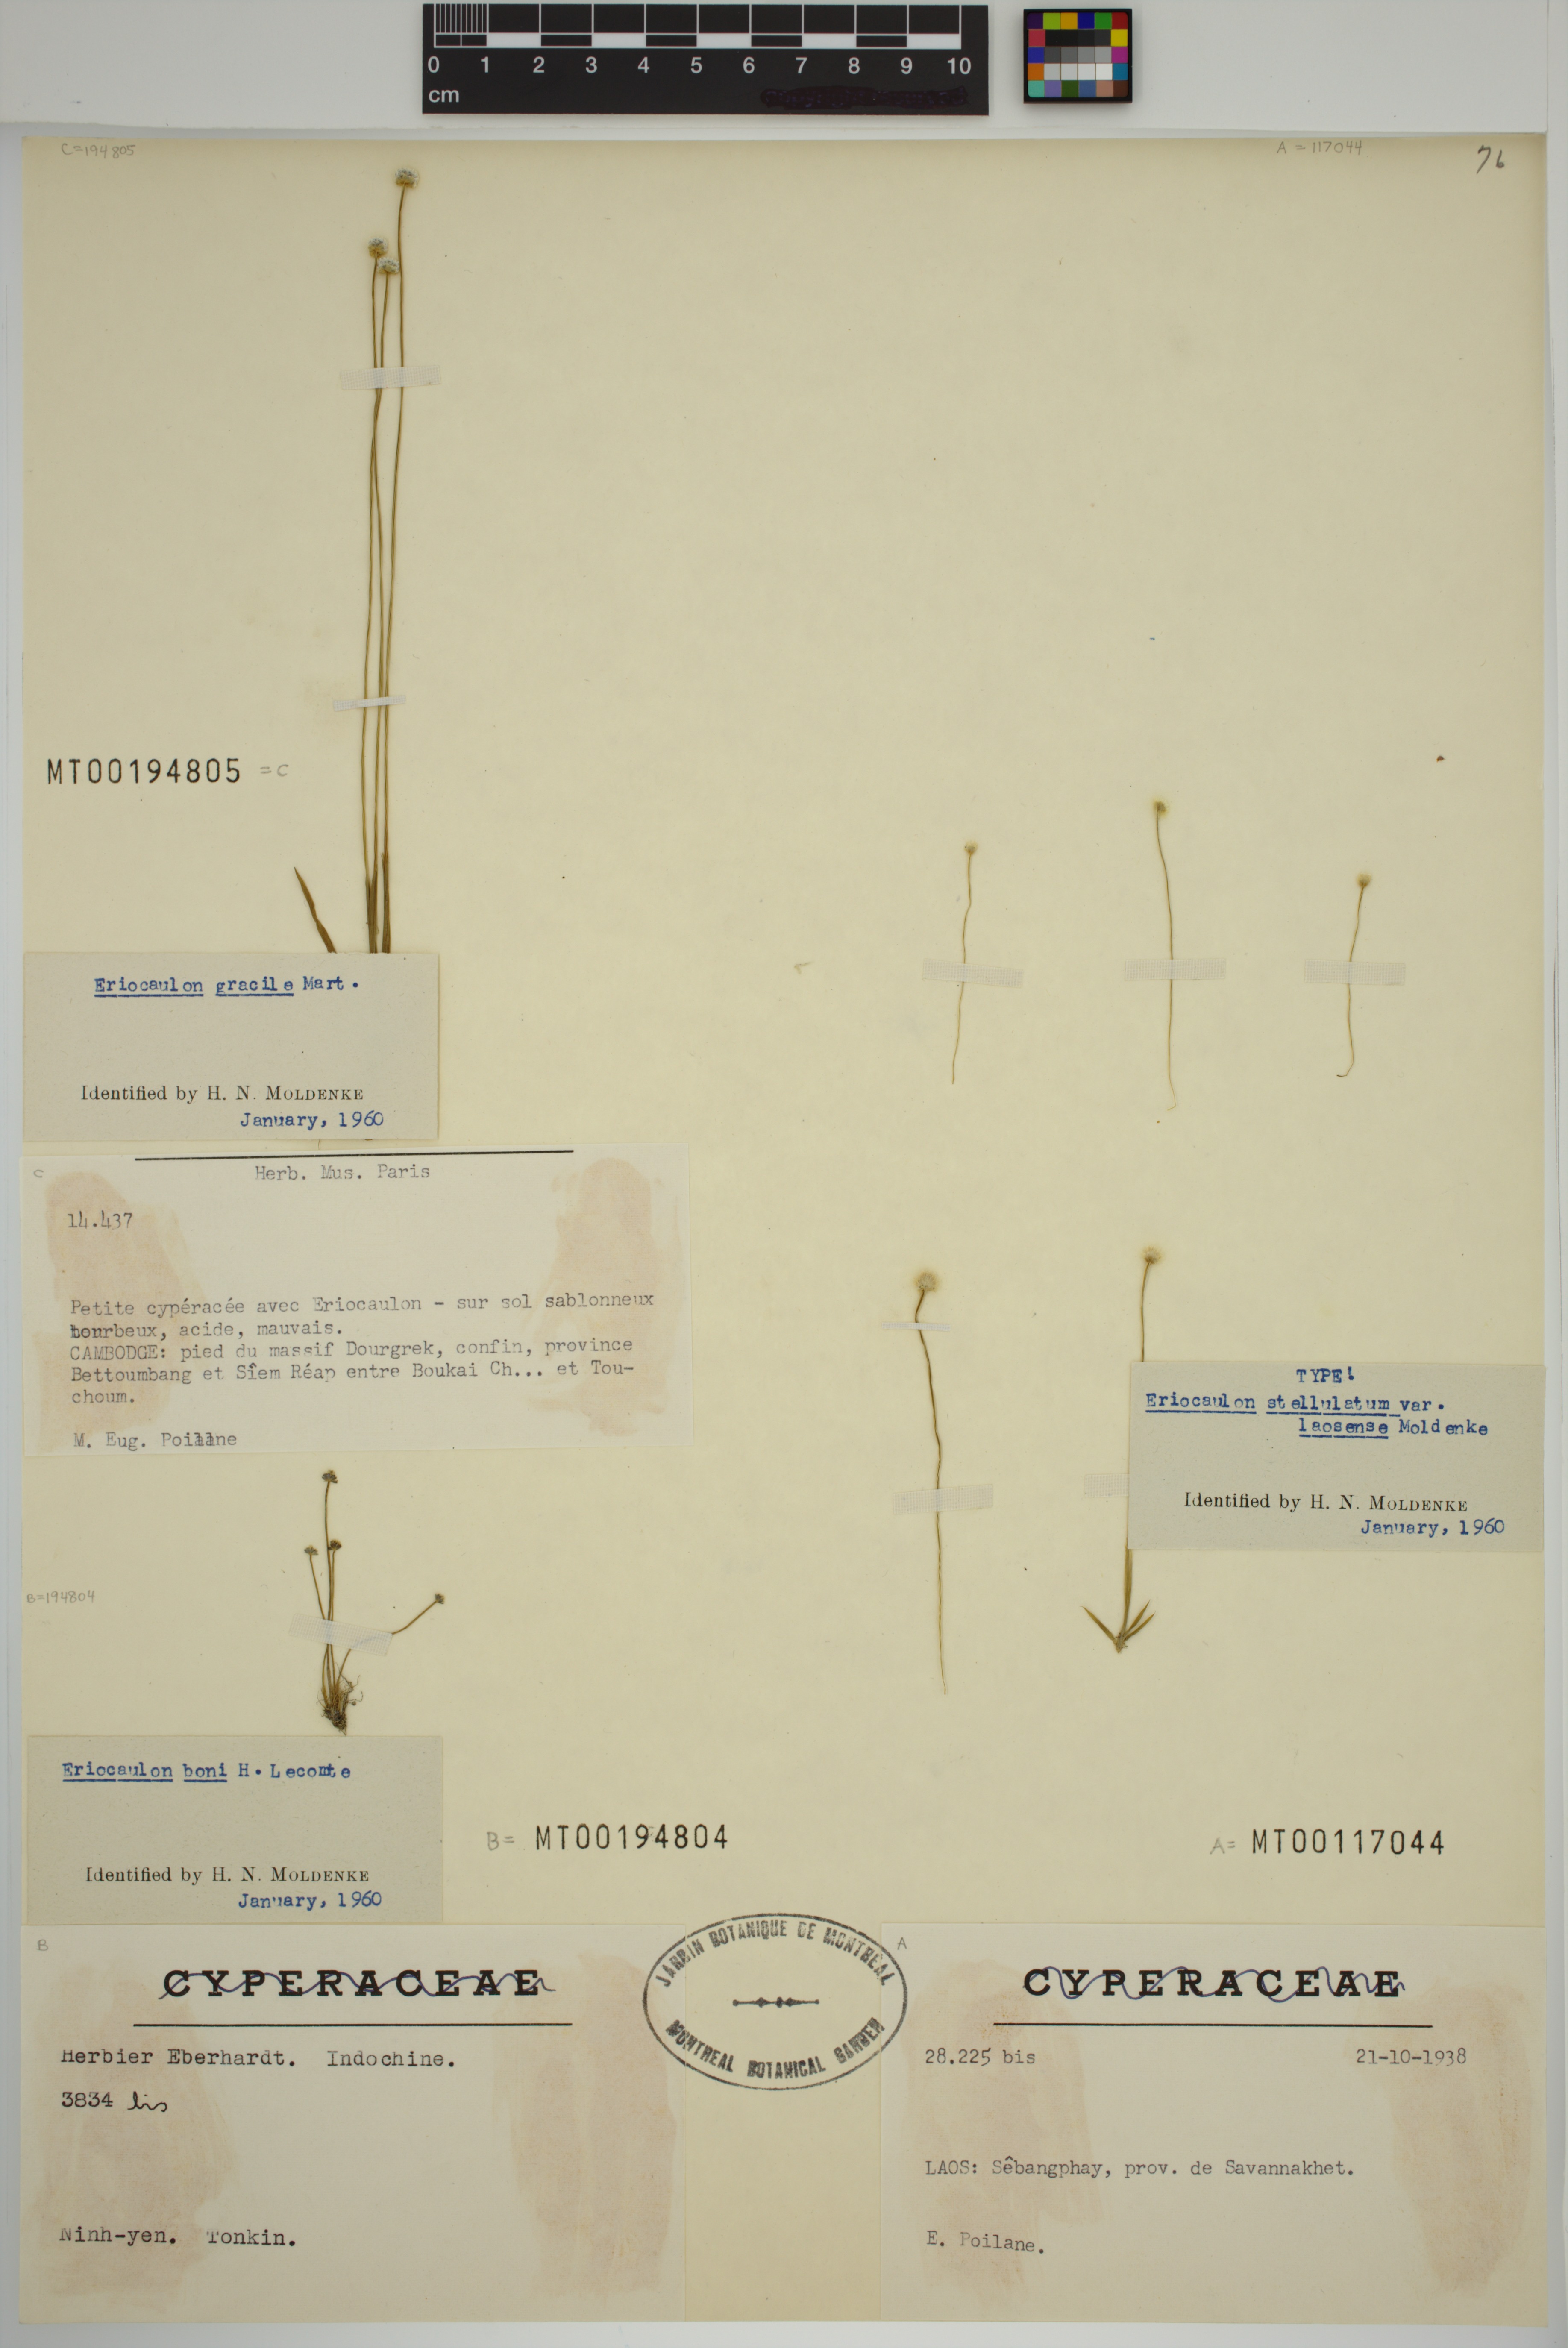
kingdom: Plantae
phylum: Tracheophyta
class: Liliopsida
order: Poales
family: Eriocaulaceae
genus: Eriocaulon
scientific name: Eriocaulon boni
